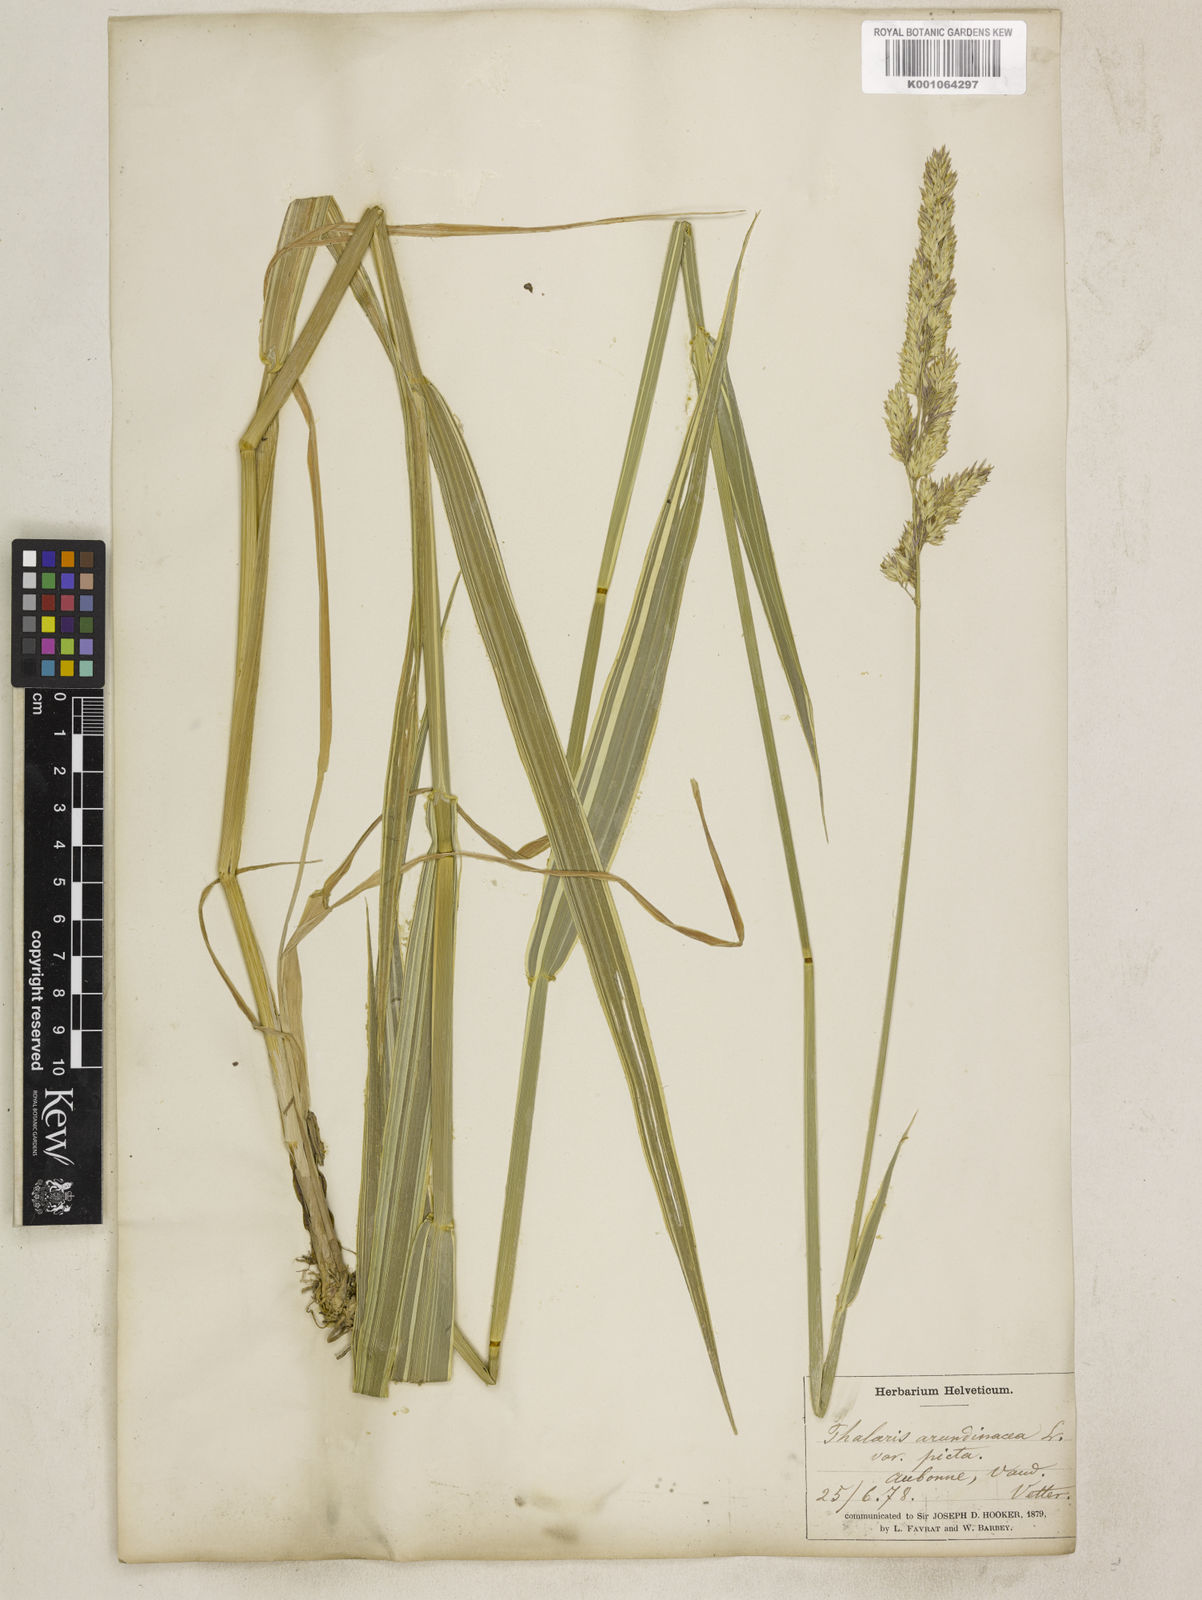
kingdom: Plantae
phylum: Tracheophyta
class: Liliopsida
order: Poales
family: Poaceae
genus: Phalaris
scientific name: Phalaris arundinacea
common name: Reed canary-grass
